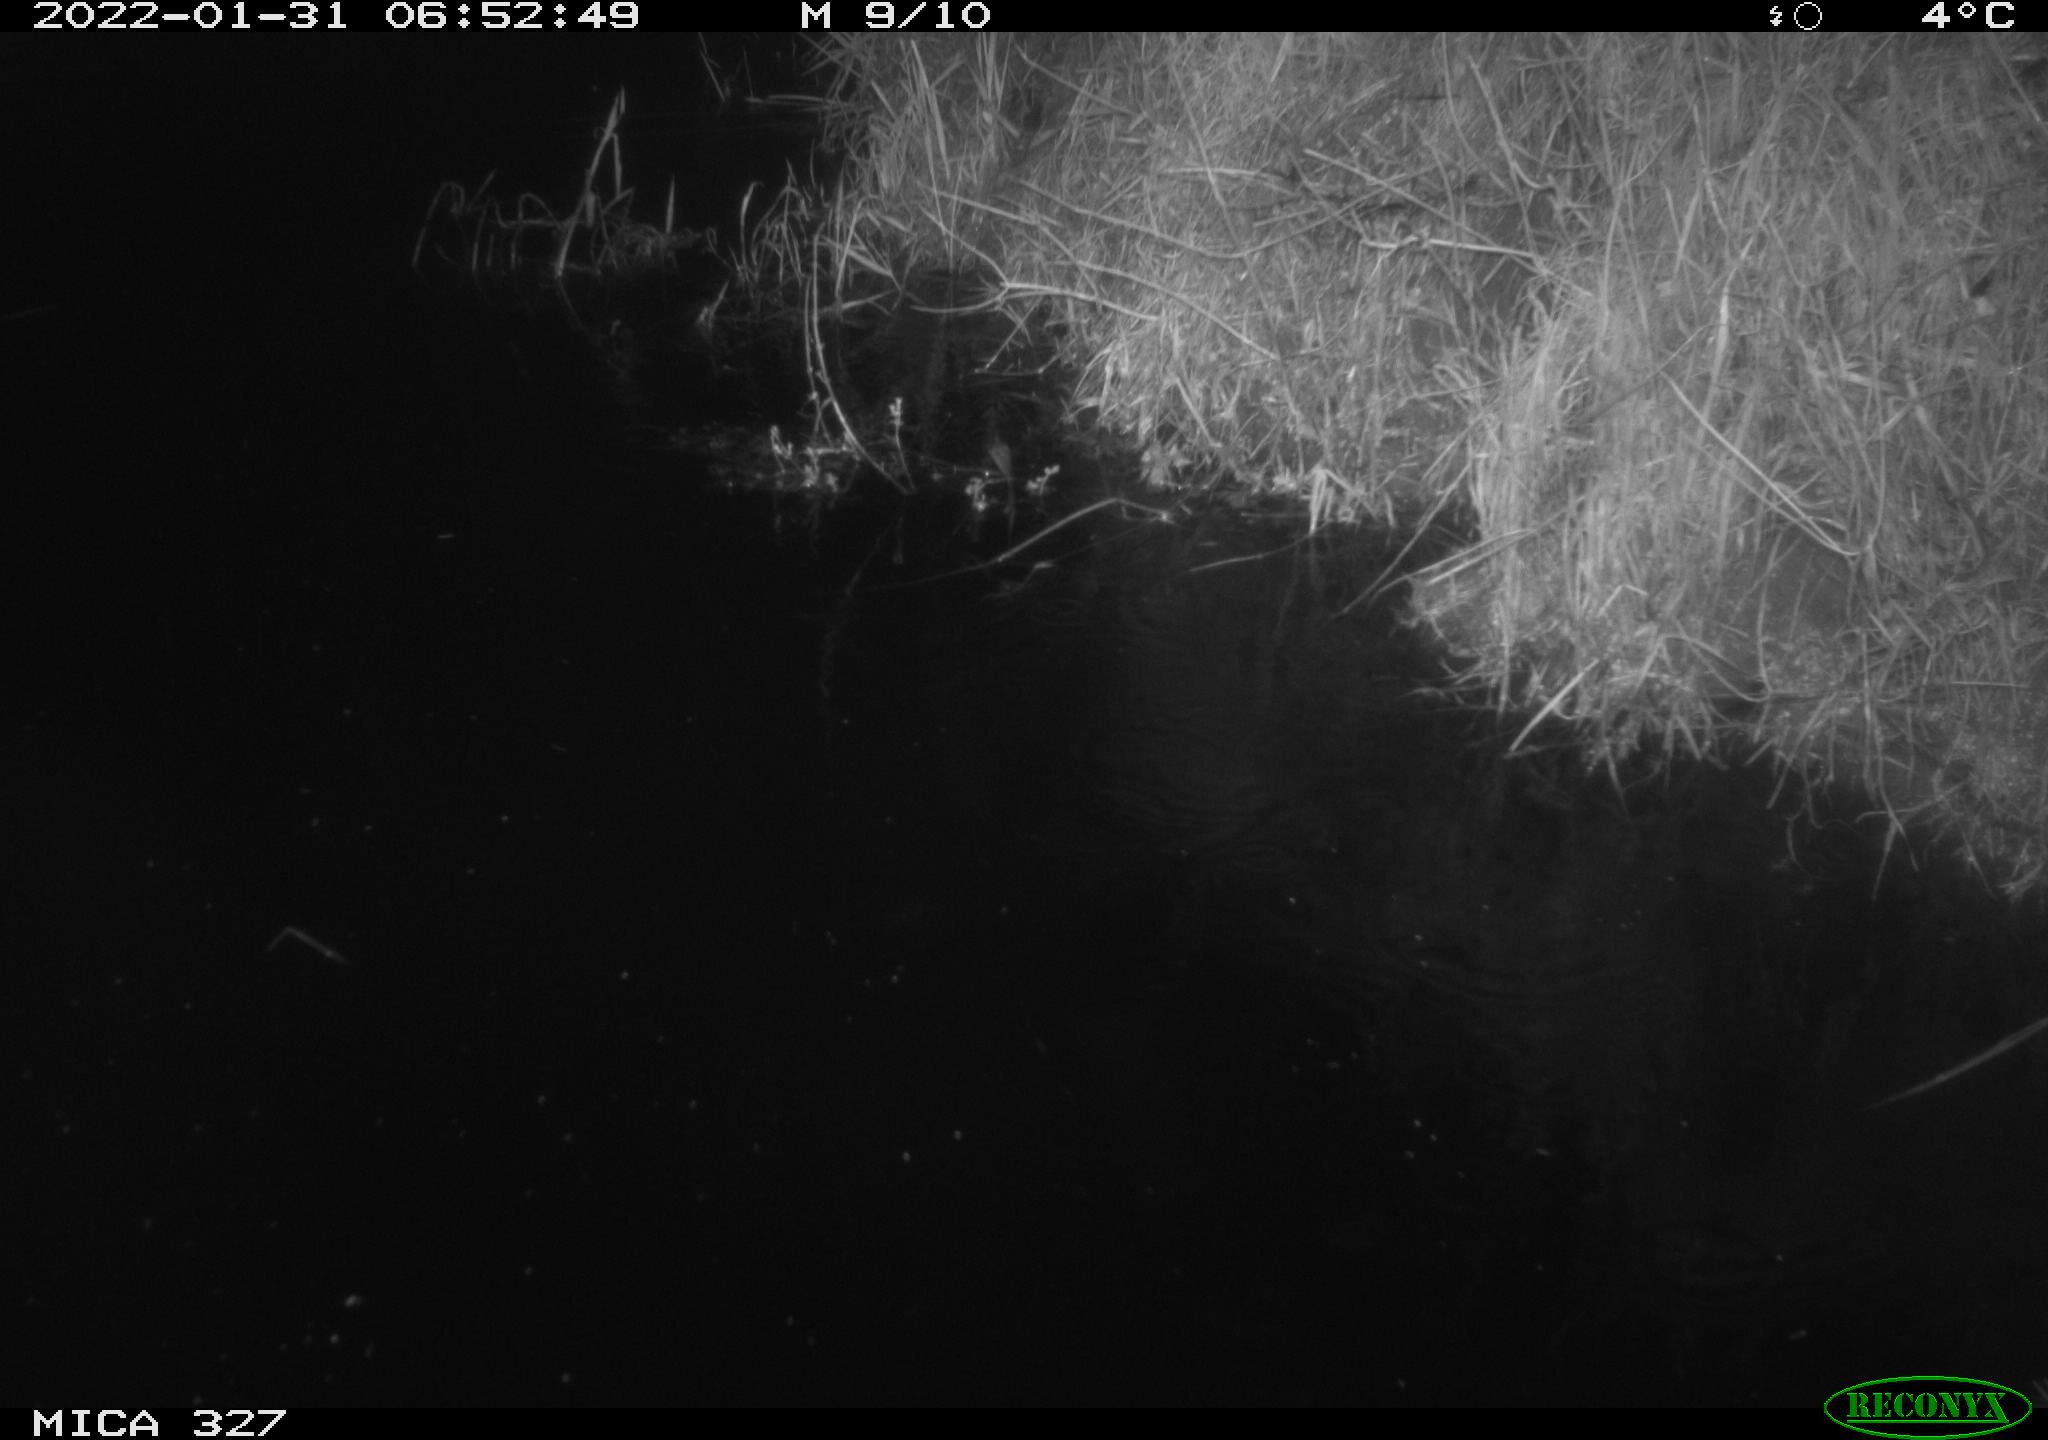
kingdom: Animalia
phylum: Chordata
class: Mammalia
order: Rodentia
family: Muridae
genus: Rattus
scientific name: Rattus norvegicus
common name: Brown rat
